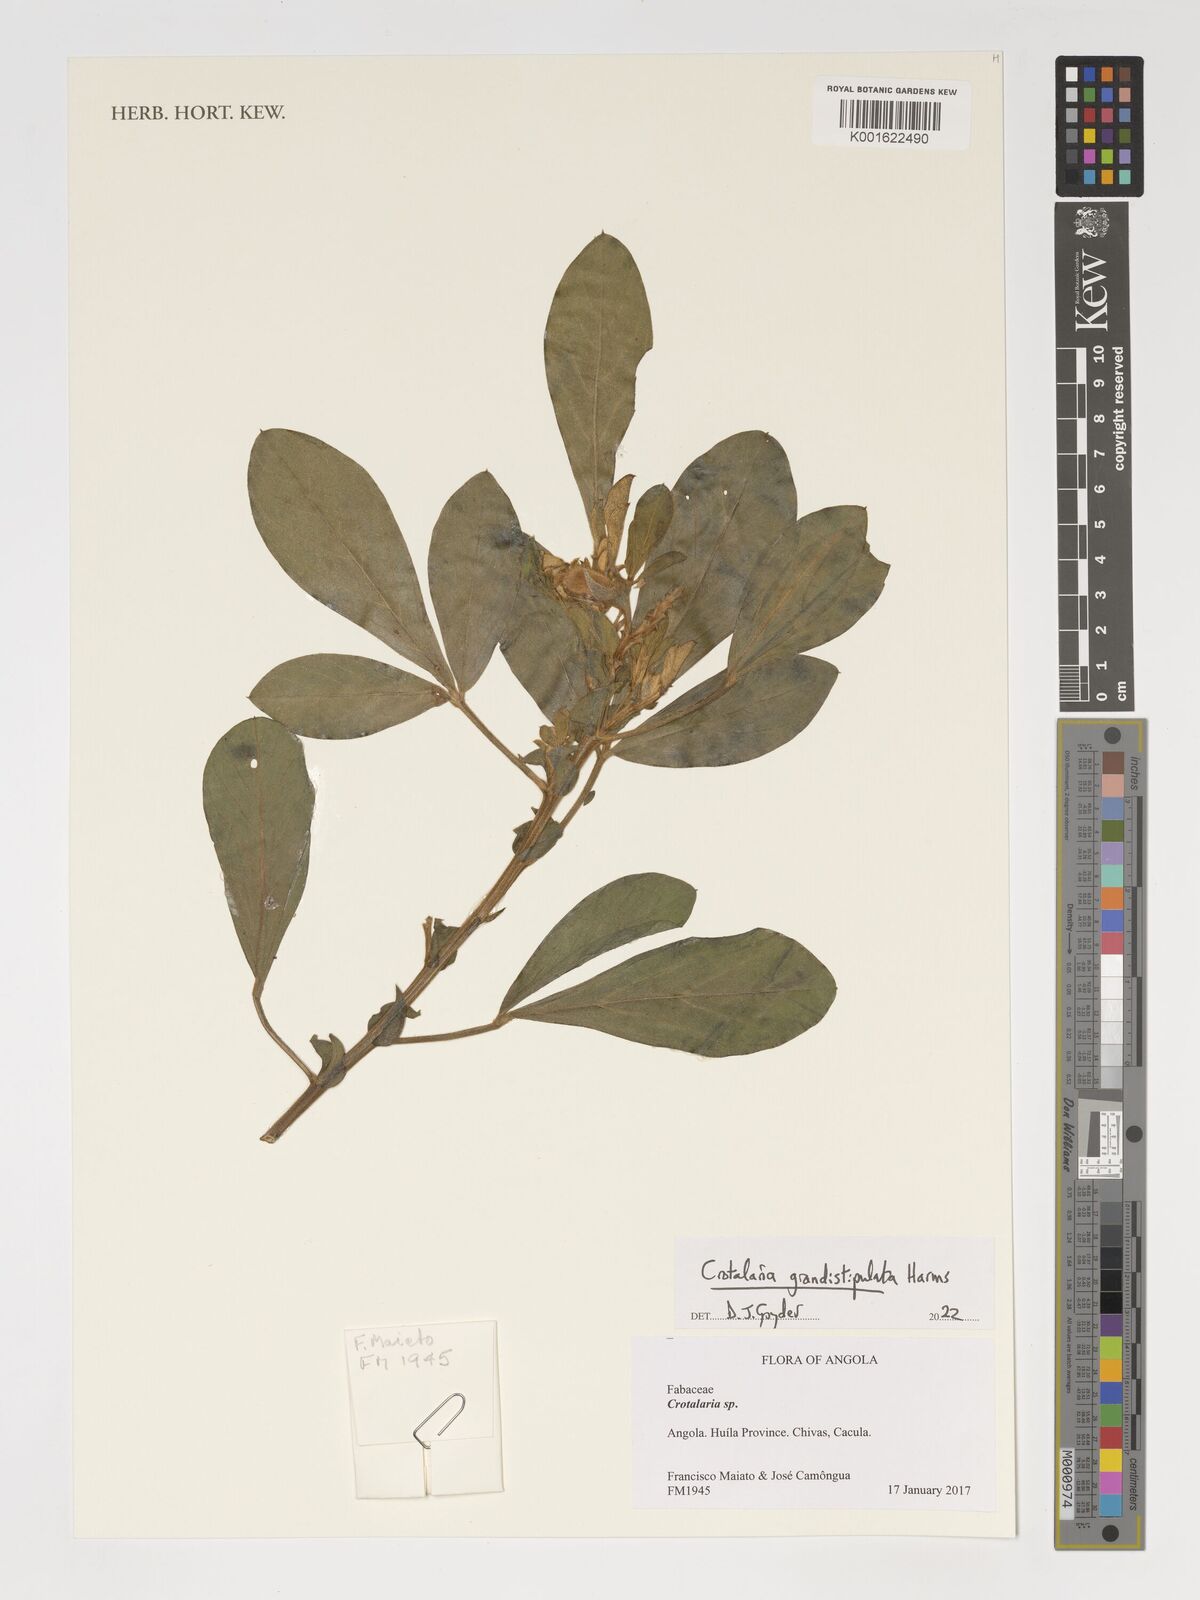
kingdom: Plantae
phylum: Tracheophyta
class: Magnoliopsida
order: Fabales
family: Fabaceae
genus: Crotalaria
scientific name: Crotalaria grandistipulata
